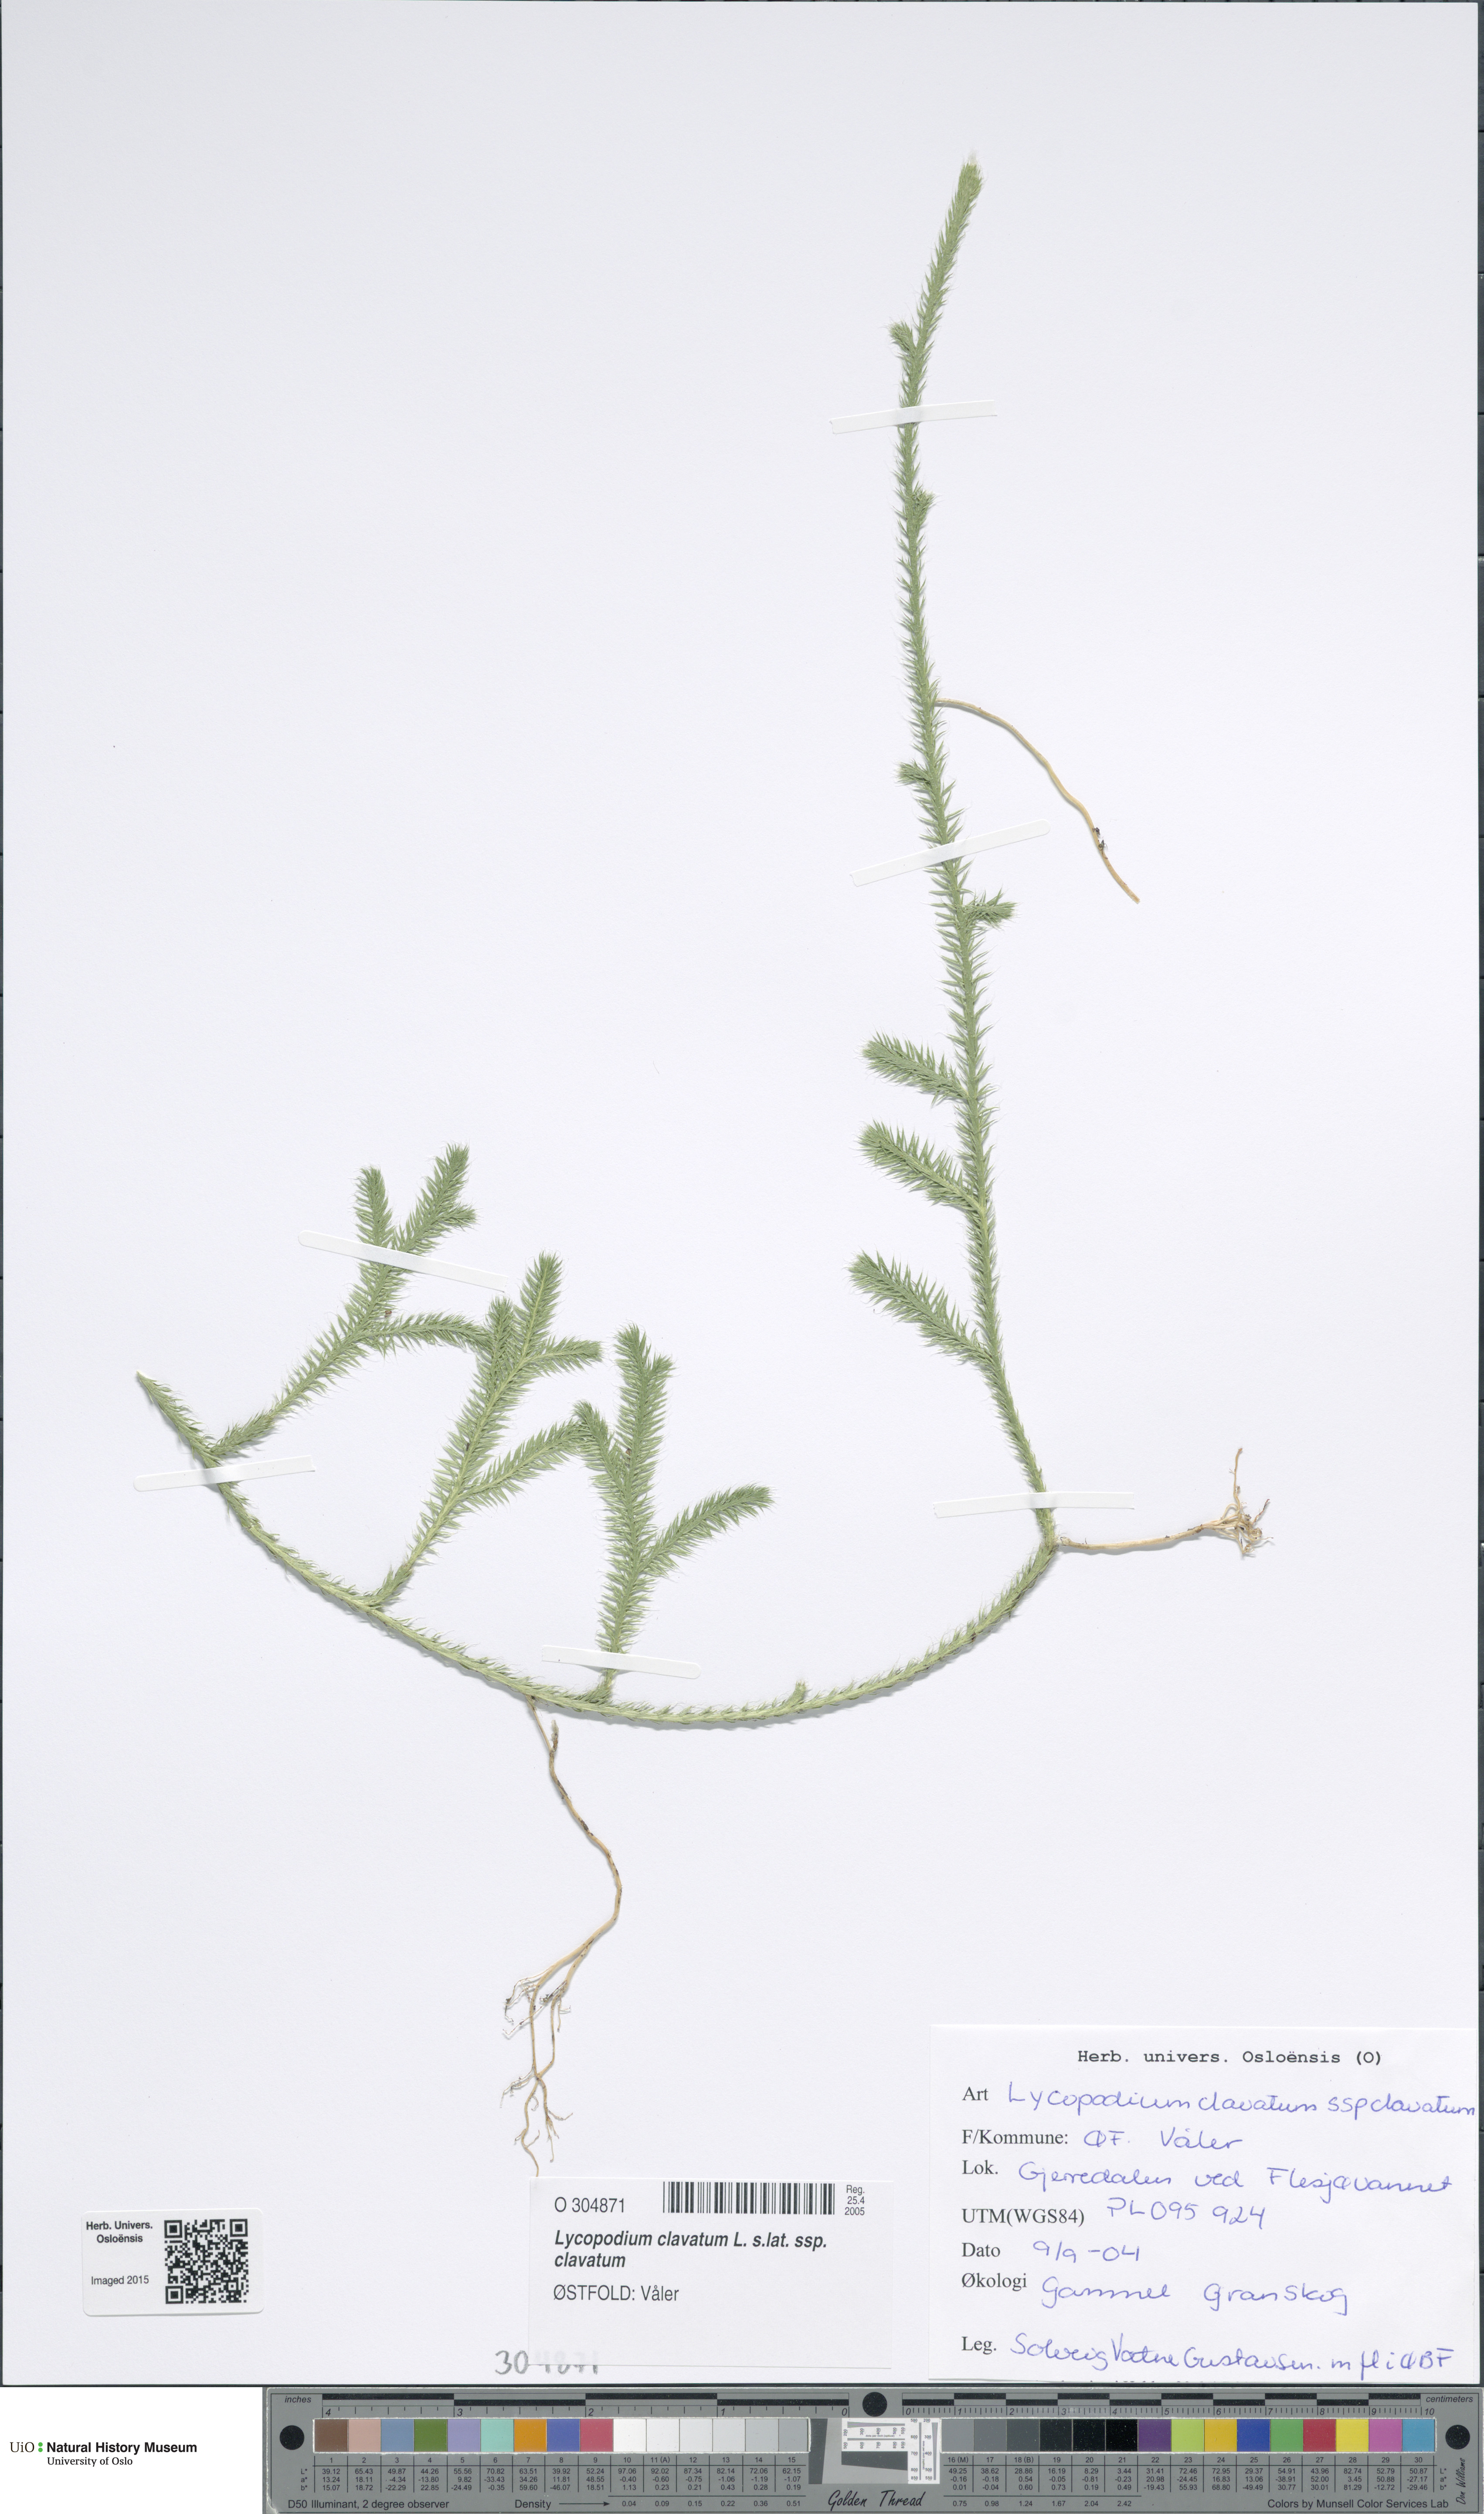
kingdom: Plantae
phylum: Tracheophyta
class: Lycopodiopsida
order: Lycopodiales
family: Lycopodiaceae
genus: Lycopodium
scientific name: Lycopodium clavatum
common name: Stag's-horn clubmoss
